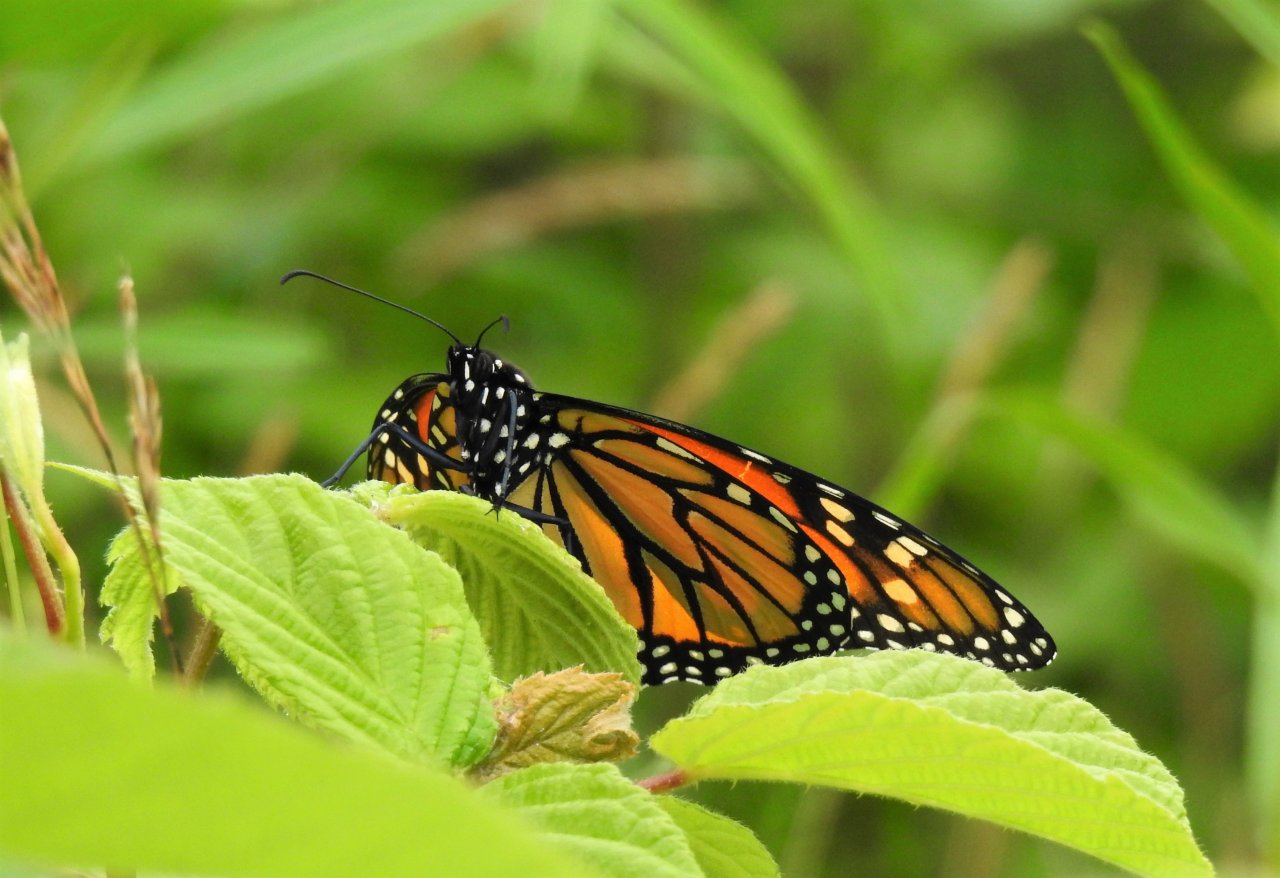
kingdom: Animalia
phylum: Arthropoda
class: Insecta
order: Lepidoptera
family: Nymphalidae
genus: Danaus
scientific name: Danaus plexippus
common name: Monarch
